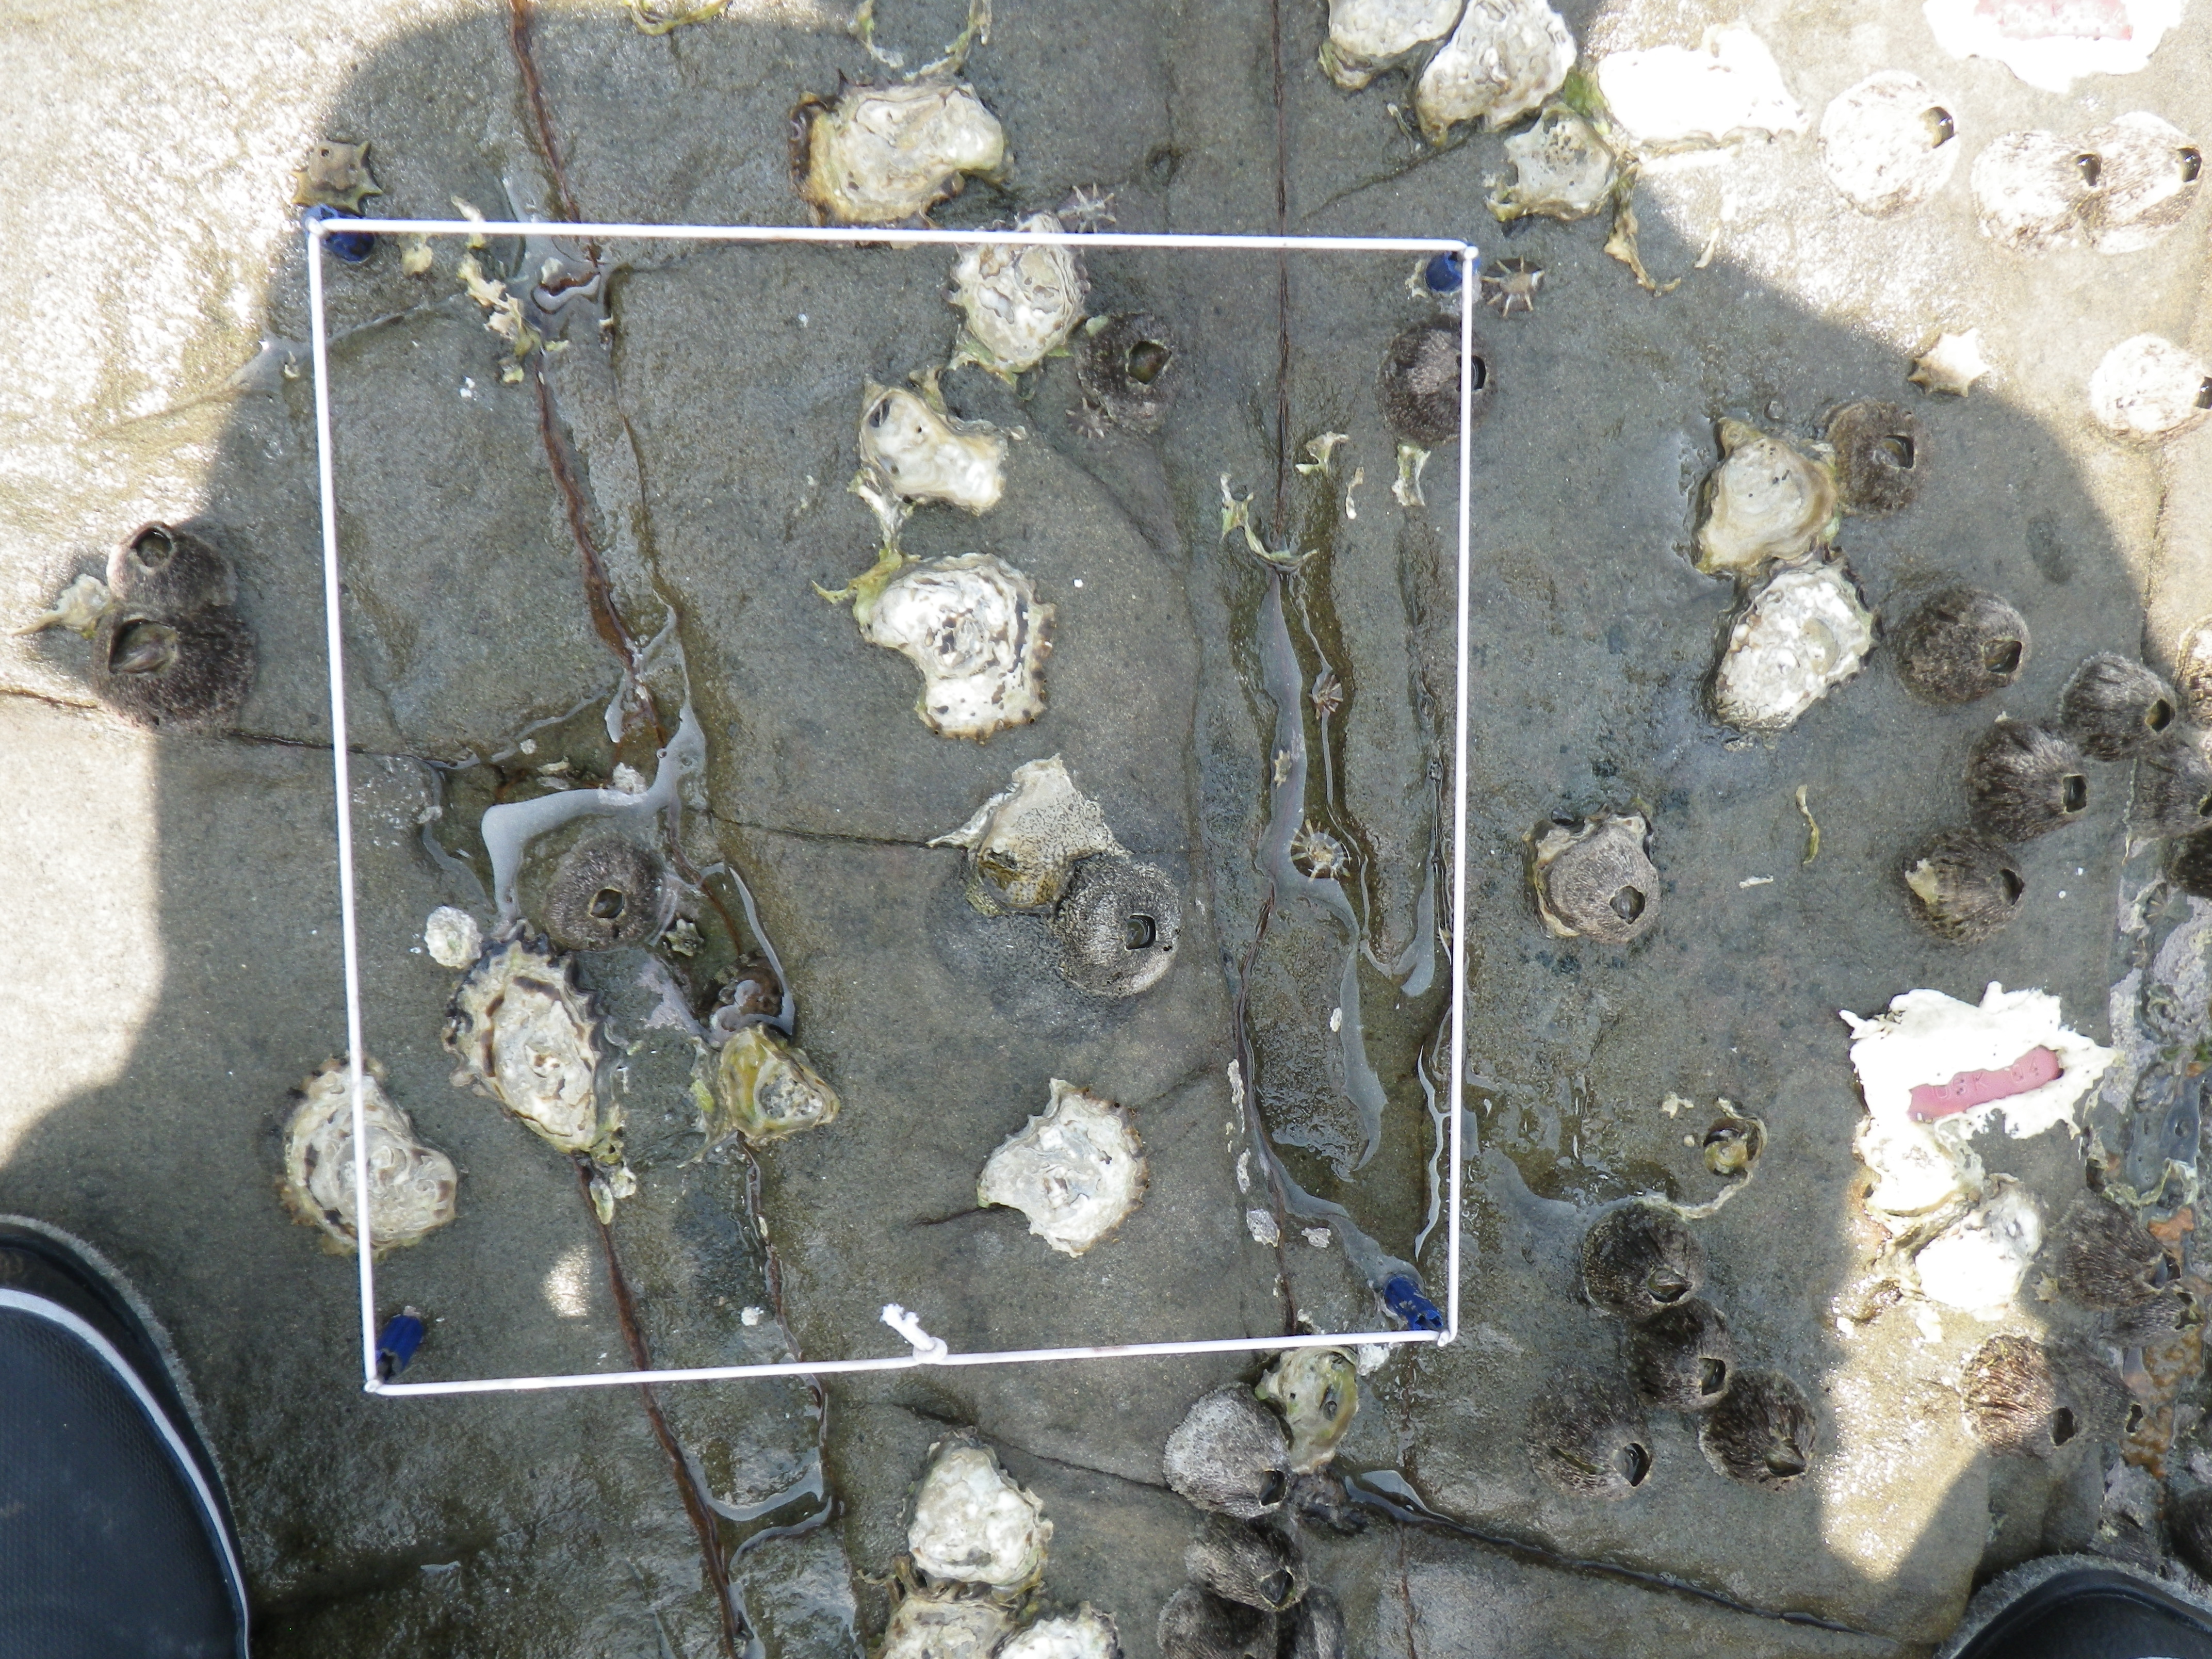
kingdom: Animalia
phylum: Arthropoda
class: Maxillopoda
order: Sessilia
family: Chthamalidae
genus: Chthamalus
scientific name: Chthamalus challengeri
